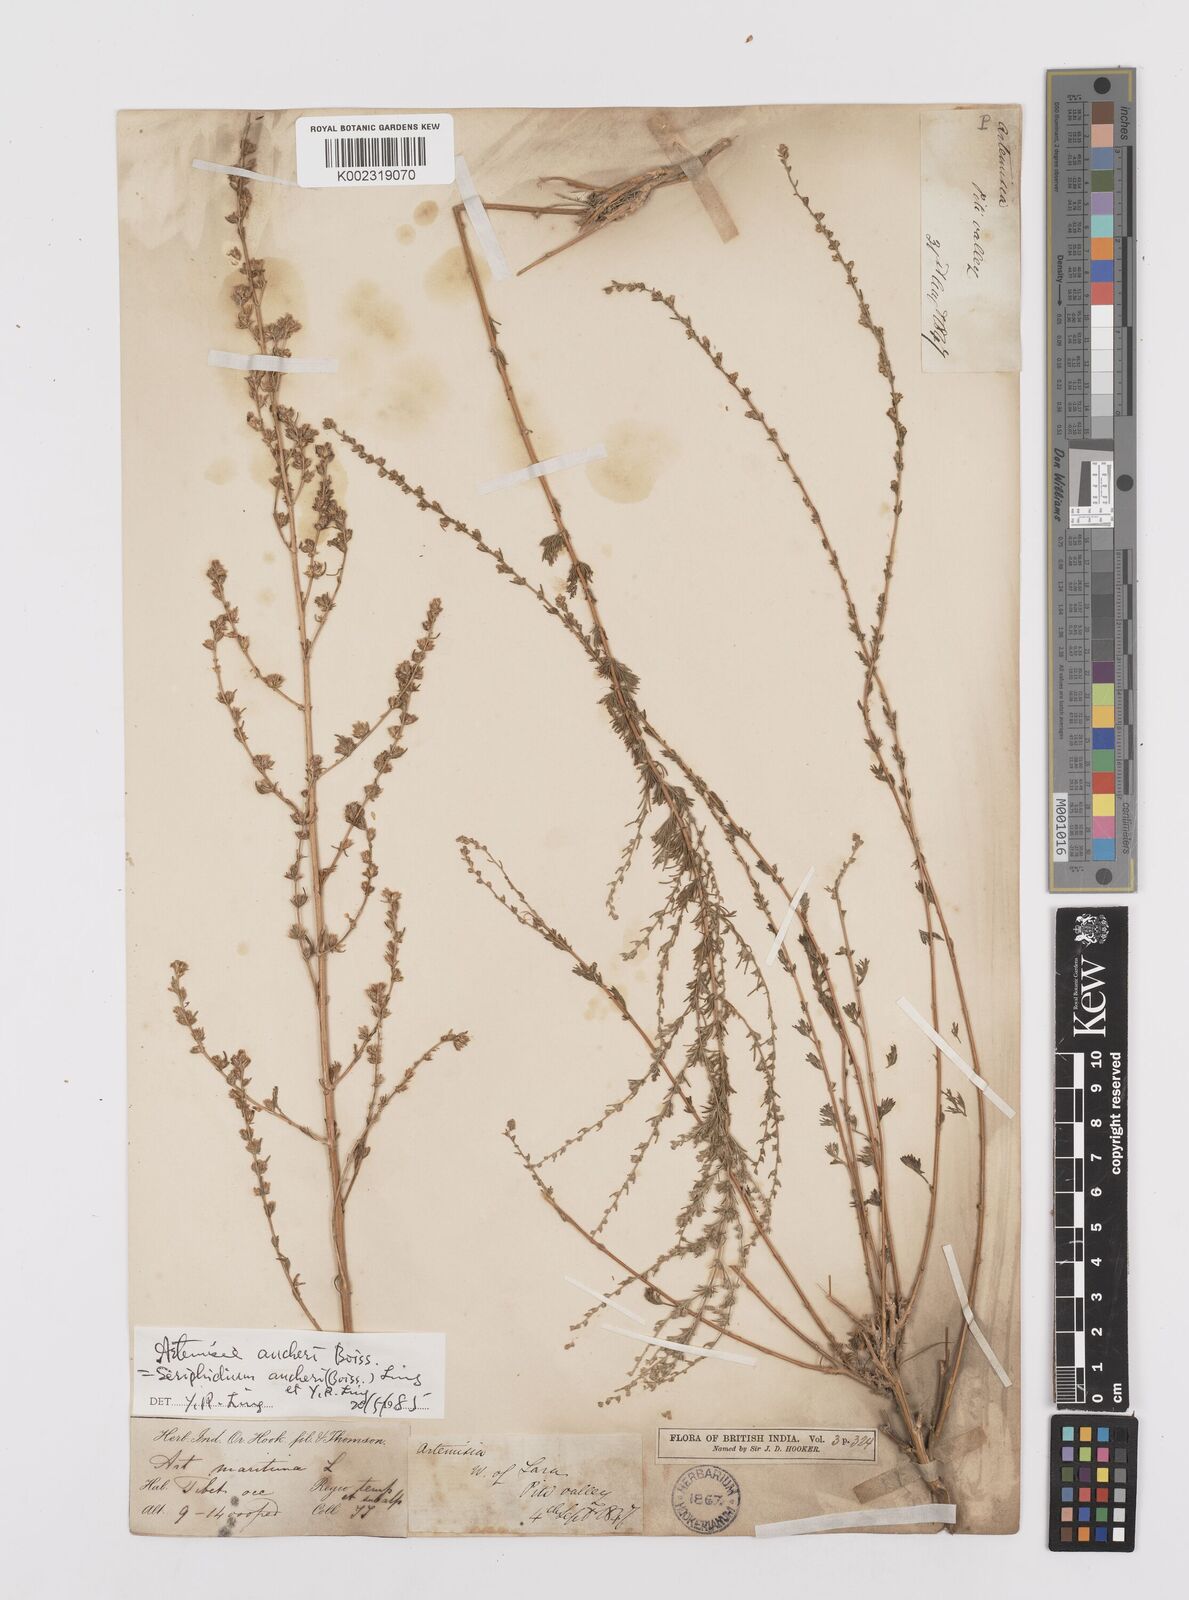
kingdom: Plantae
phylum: Tracheophyta
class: Magnoliopsida
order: Asterales
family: Asteraceae
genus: Artemisia
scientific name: Artemisia aucheri
